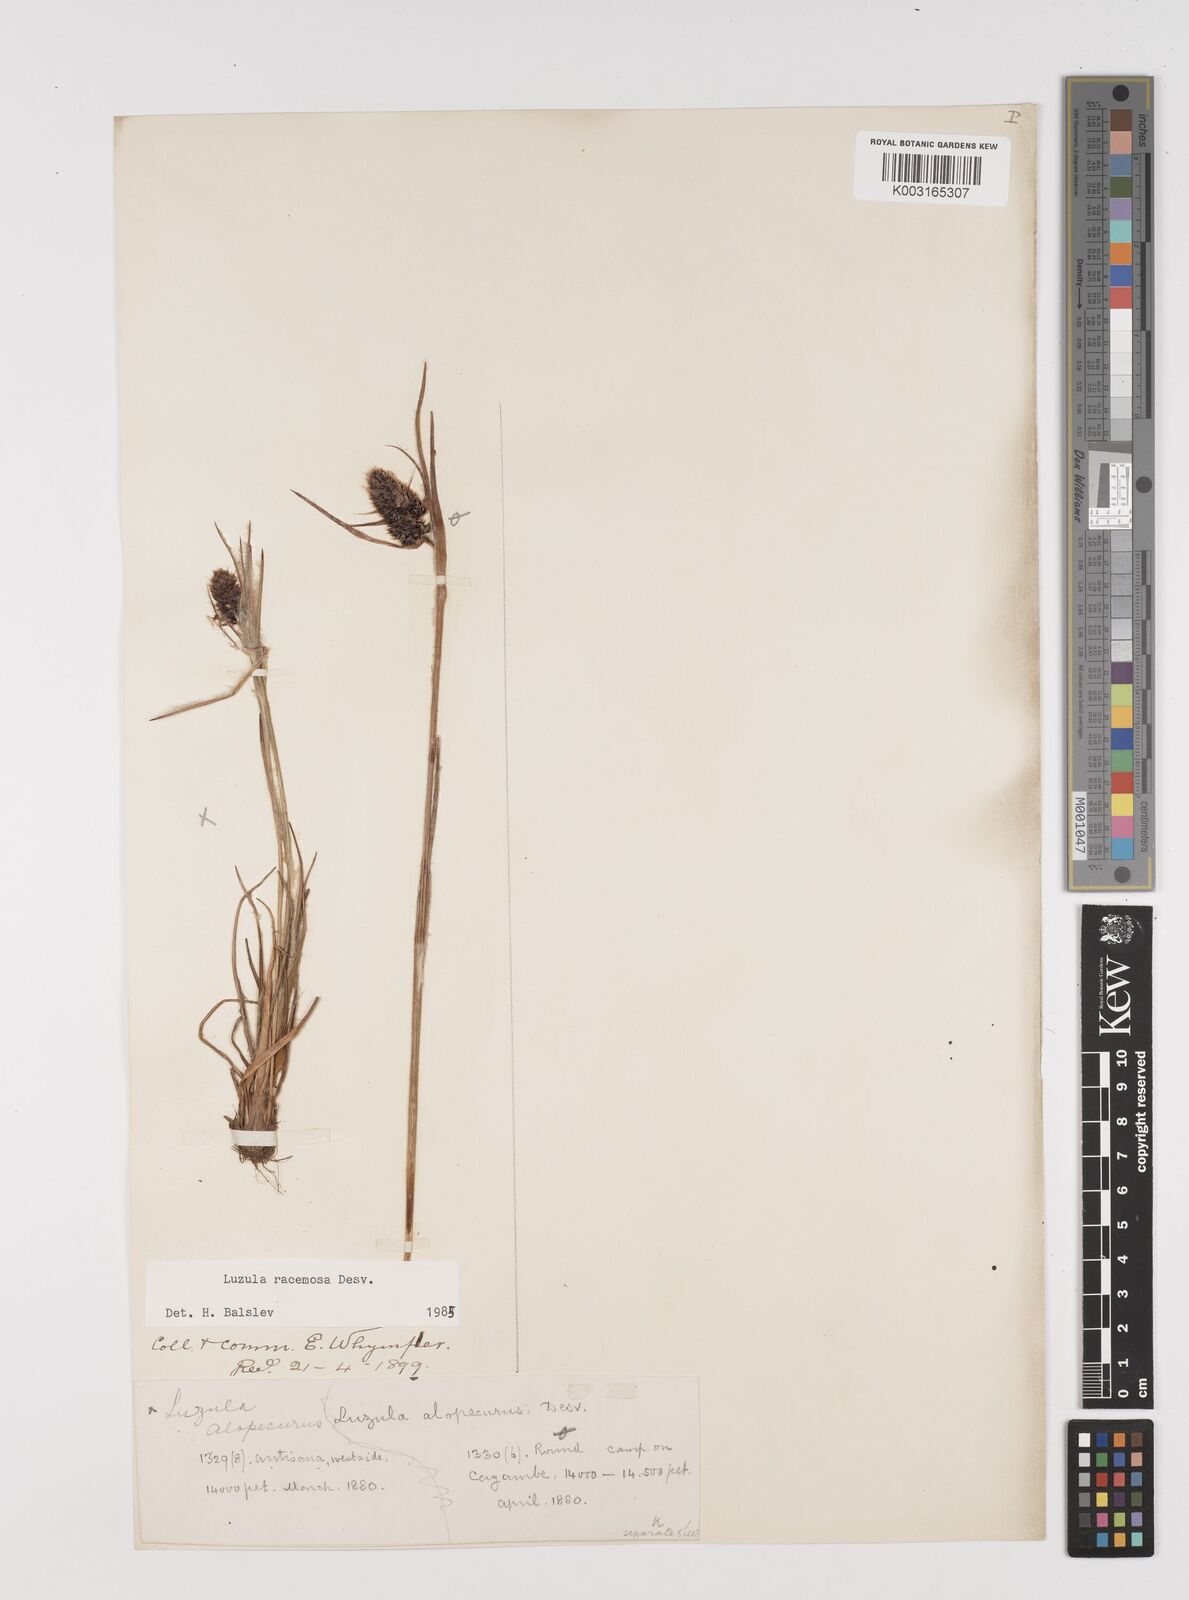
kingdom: Plantae
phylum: Tracheophyta
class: Liliopsida
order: Poales
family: Juncaceae
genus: Luzula
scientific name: Luzula racemosa
